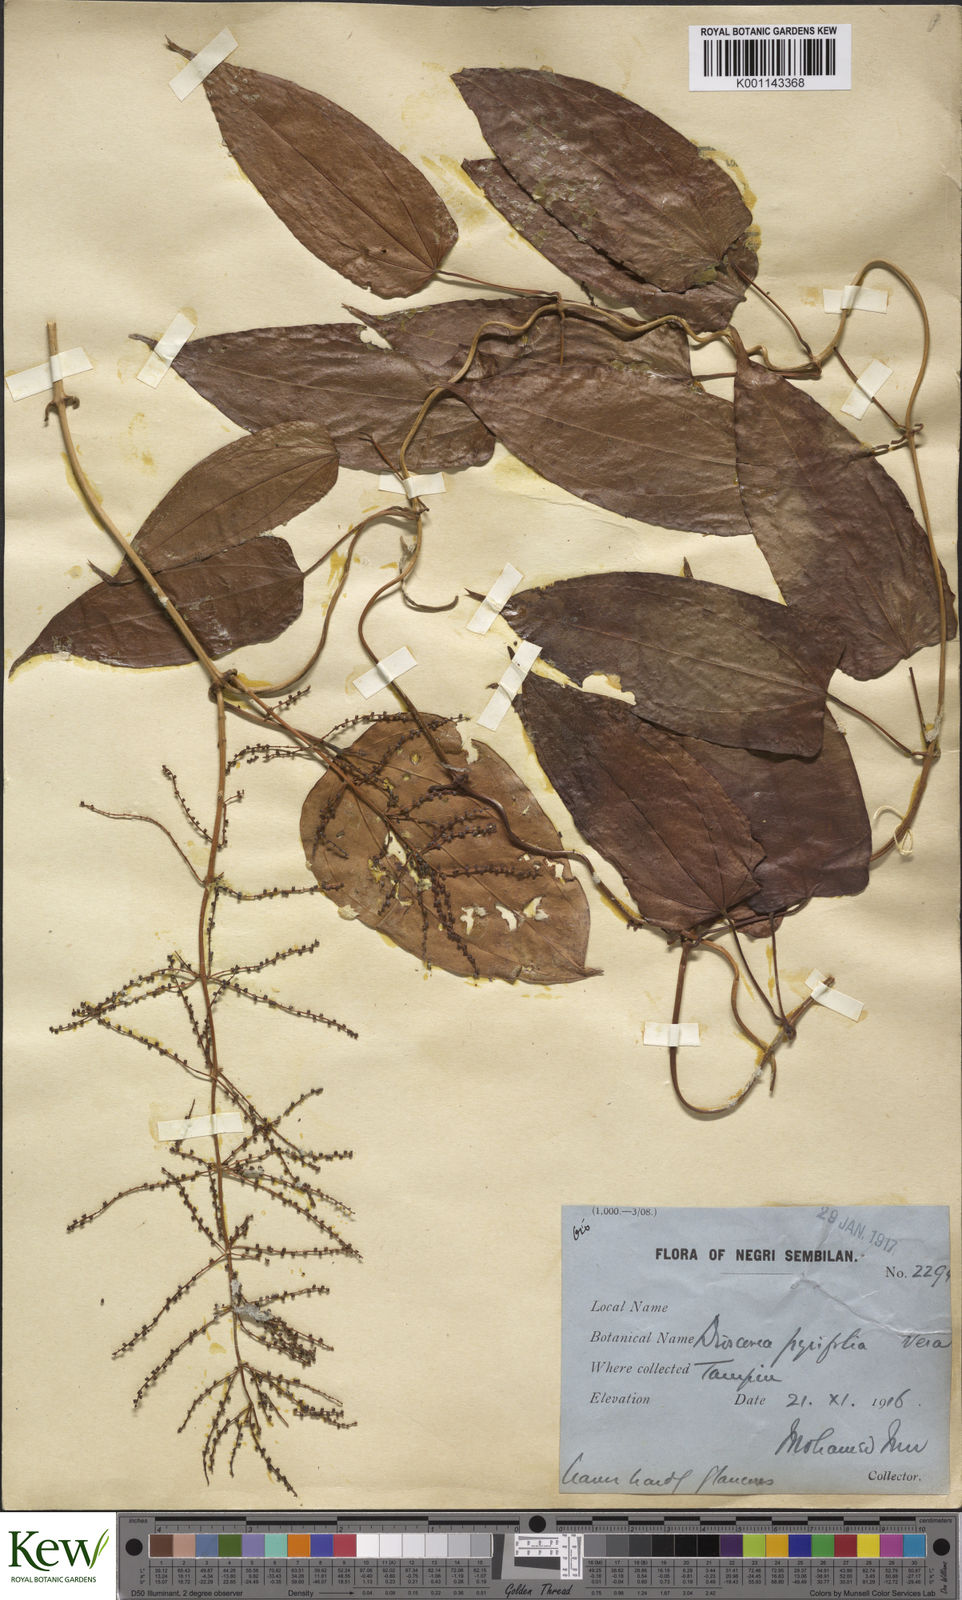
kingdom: Plantae
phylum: Tracheophyta
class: Liliopsida
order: Dioscoreales
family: Dioscoreaceae
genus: Dioscorea
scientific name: Dioscorea pyrifolia
